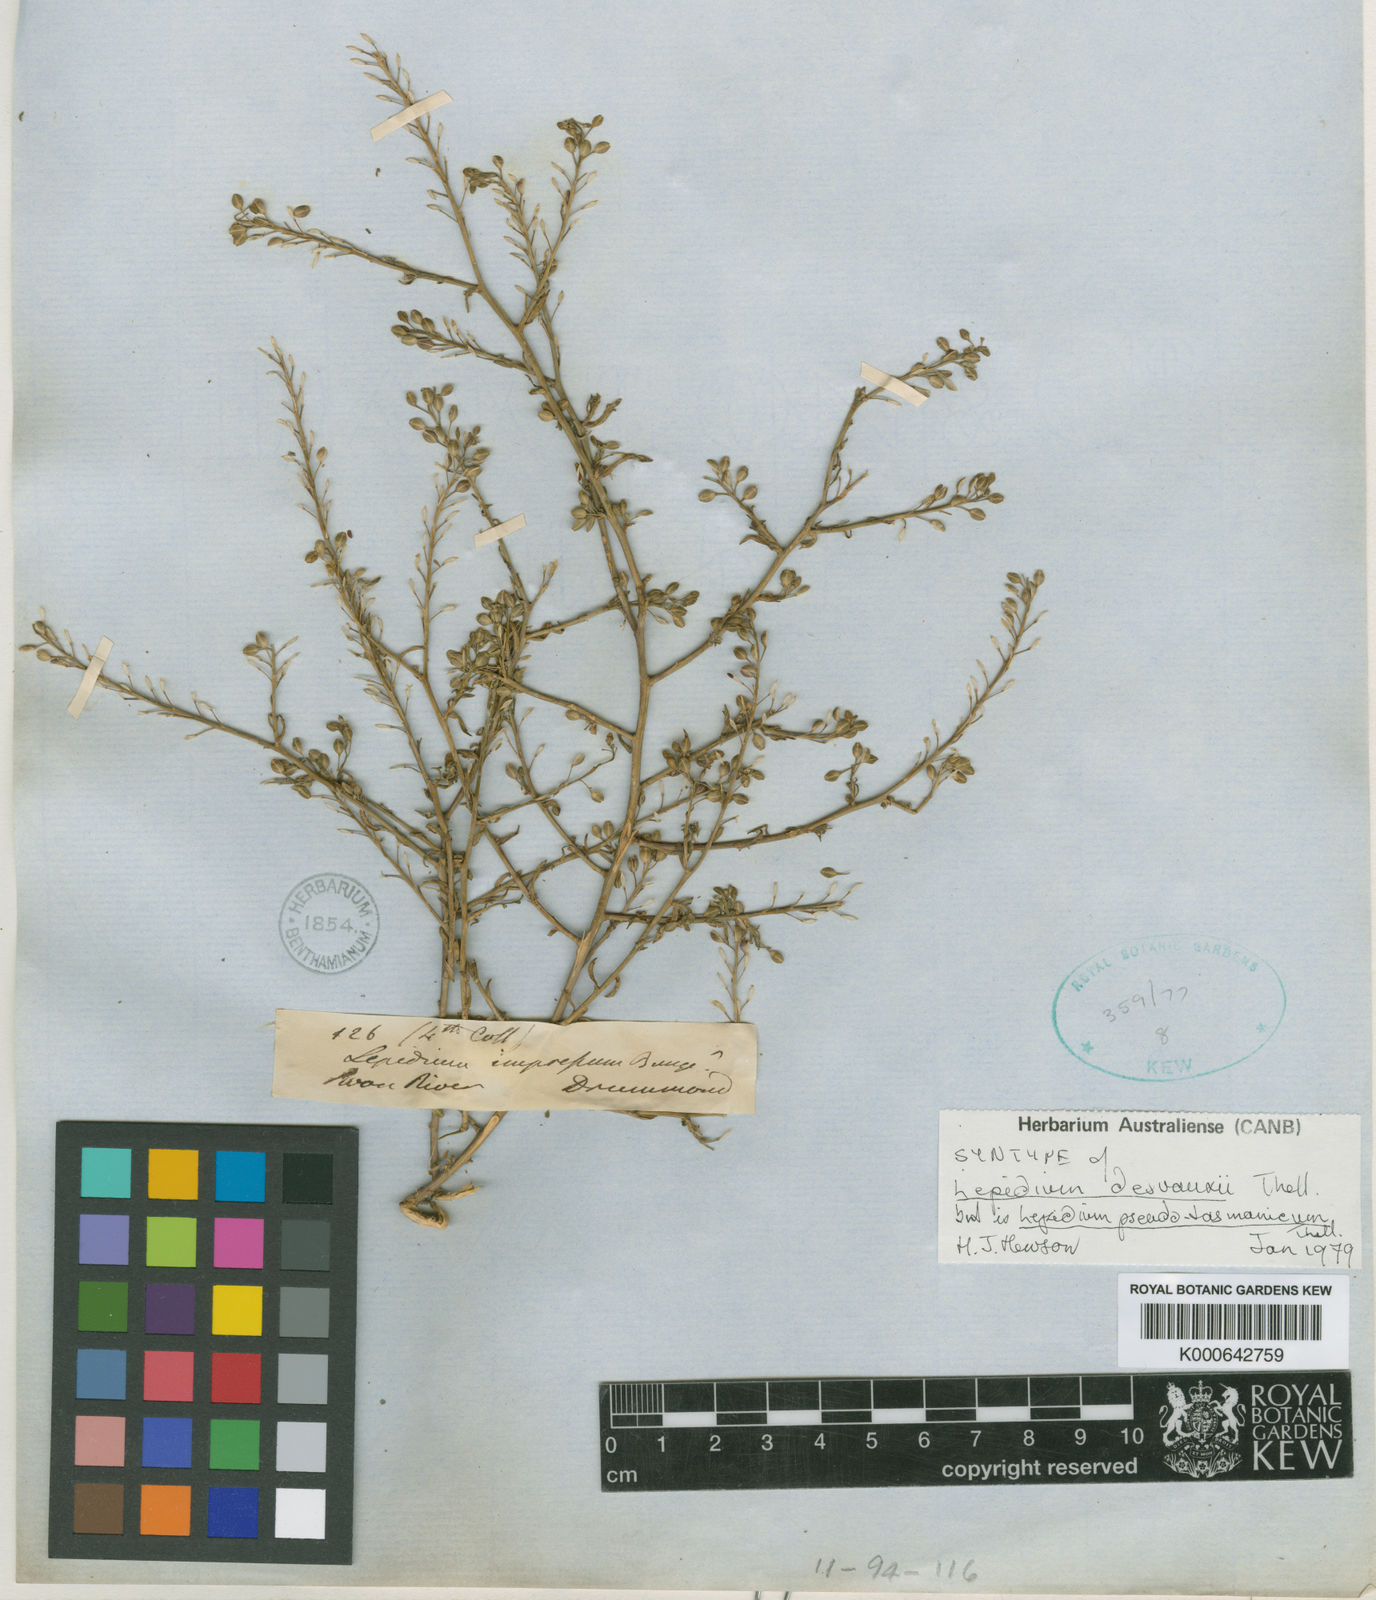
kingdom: Plantae
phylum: Tracheophyta
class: Magnoliopsida
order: Brassicales
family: Brassicaceae
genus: Lepidium
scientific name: Lepidium pseudotasmanicum
